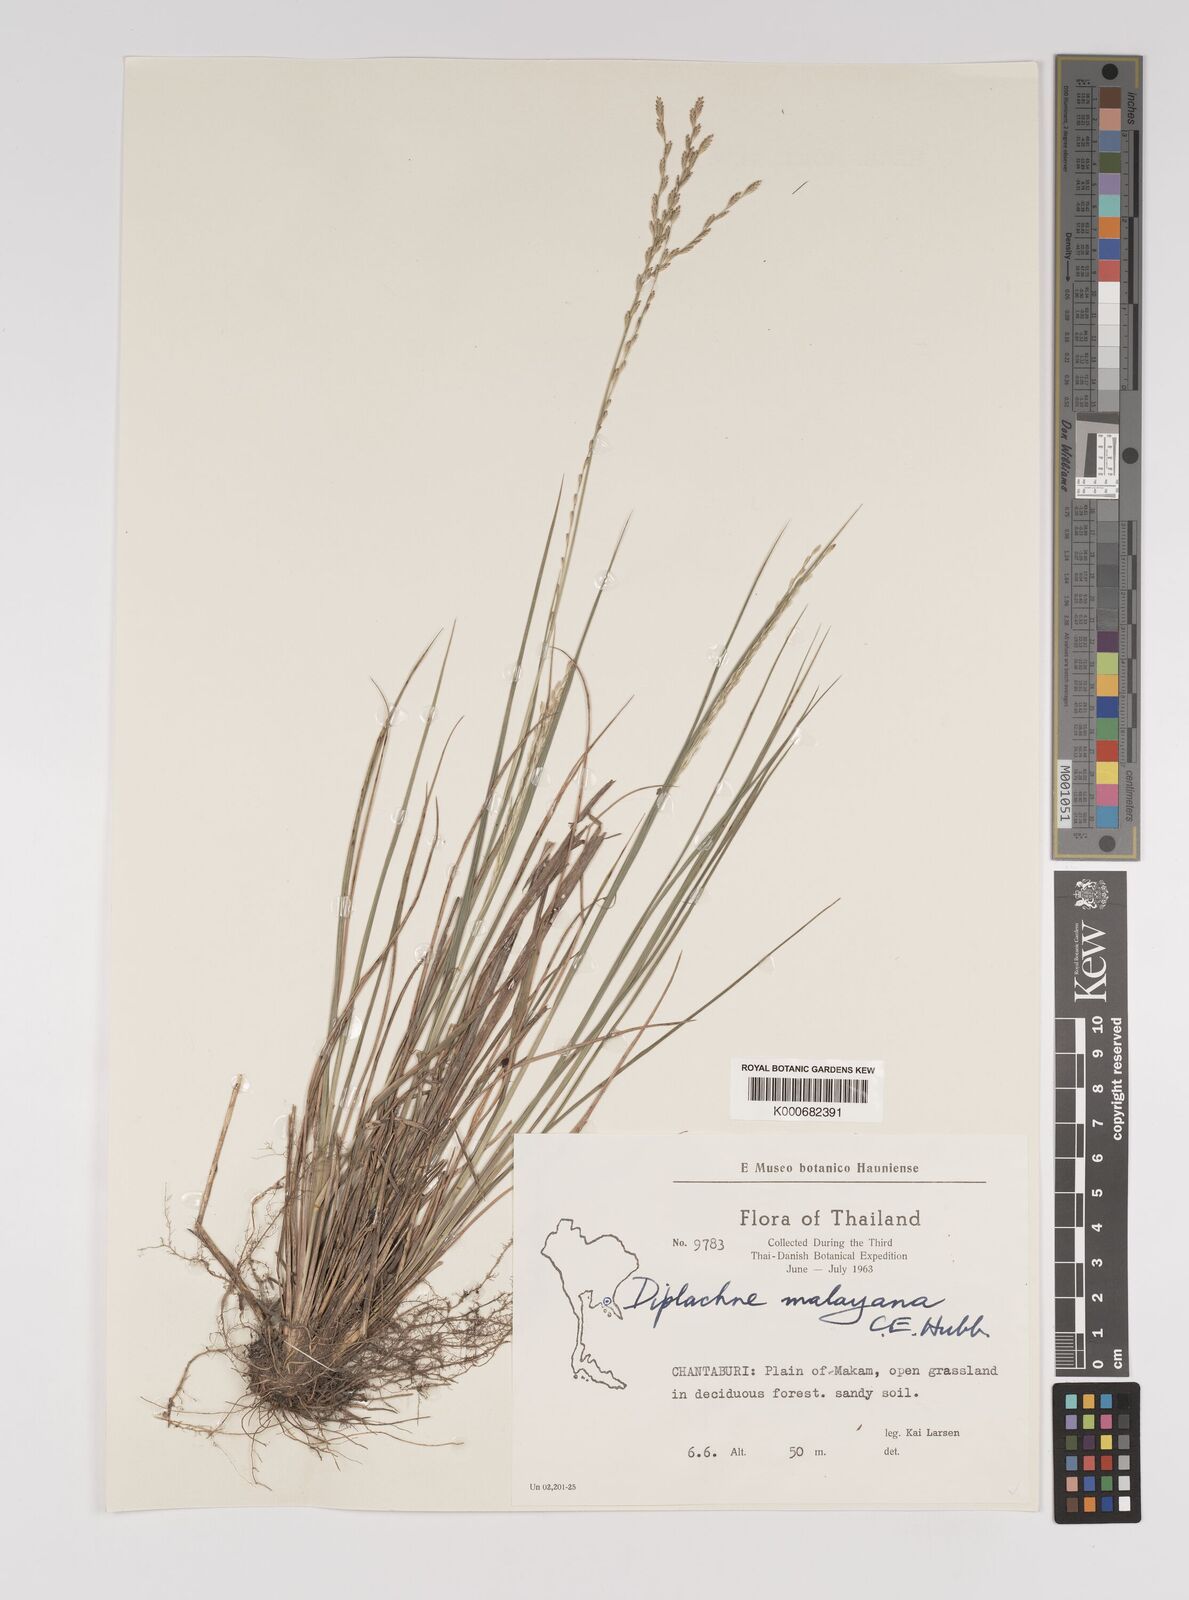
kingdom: Plantae
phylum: Tracheophyta
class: Liliopsida
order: Poales
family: Poaceae
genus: Leptochloa
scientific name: Leptochloa malayana
